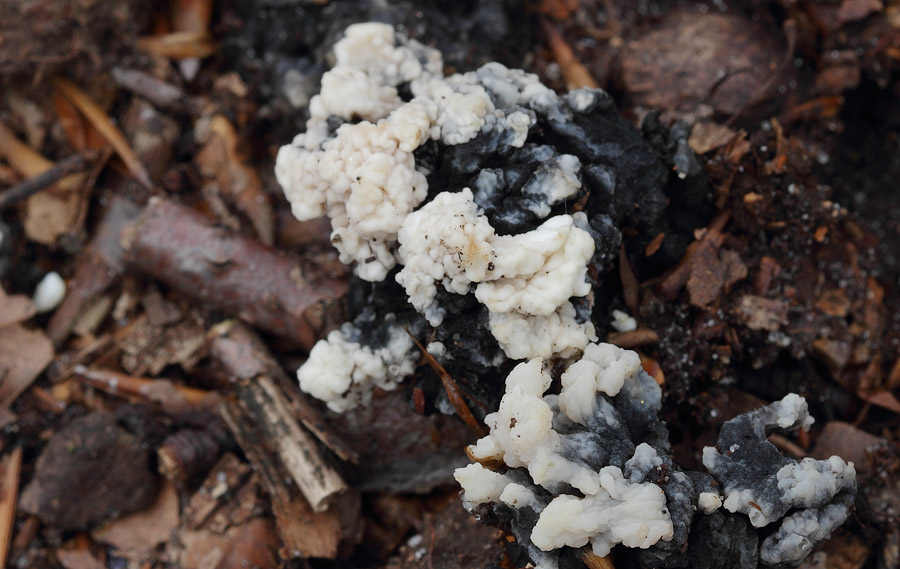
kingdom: Fungi
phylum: Ascomycota
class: Sordariomycetes
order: Sordariales
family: Helminthosphaeriaceae
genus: Helminthosphaeria
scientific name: Helminthosphaeria clavariarum
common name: trold-svampesnyltekerne
